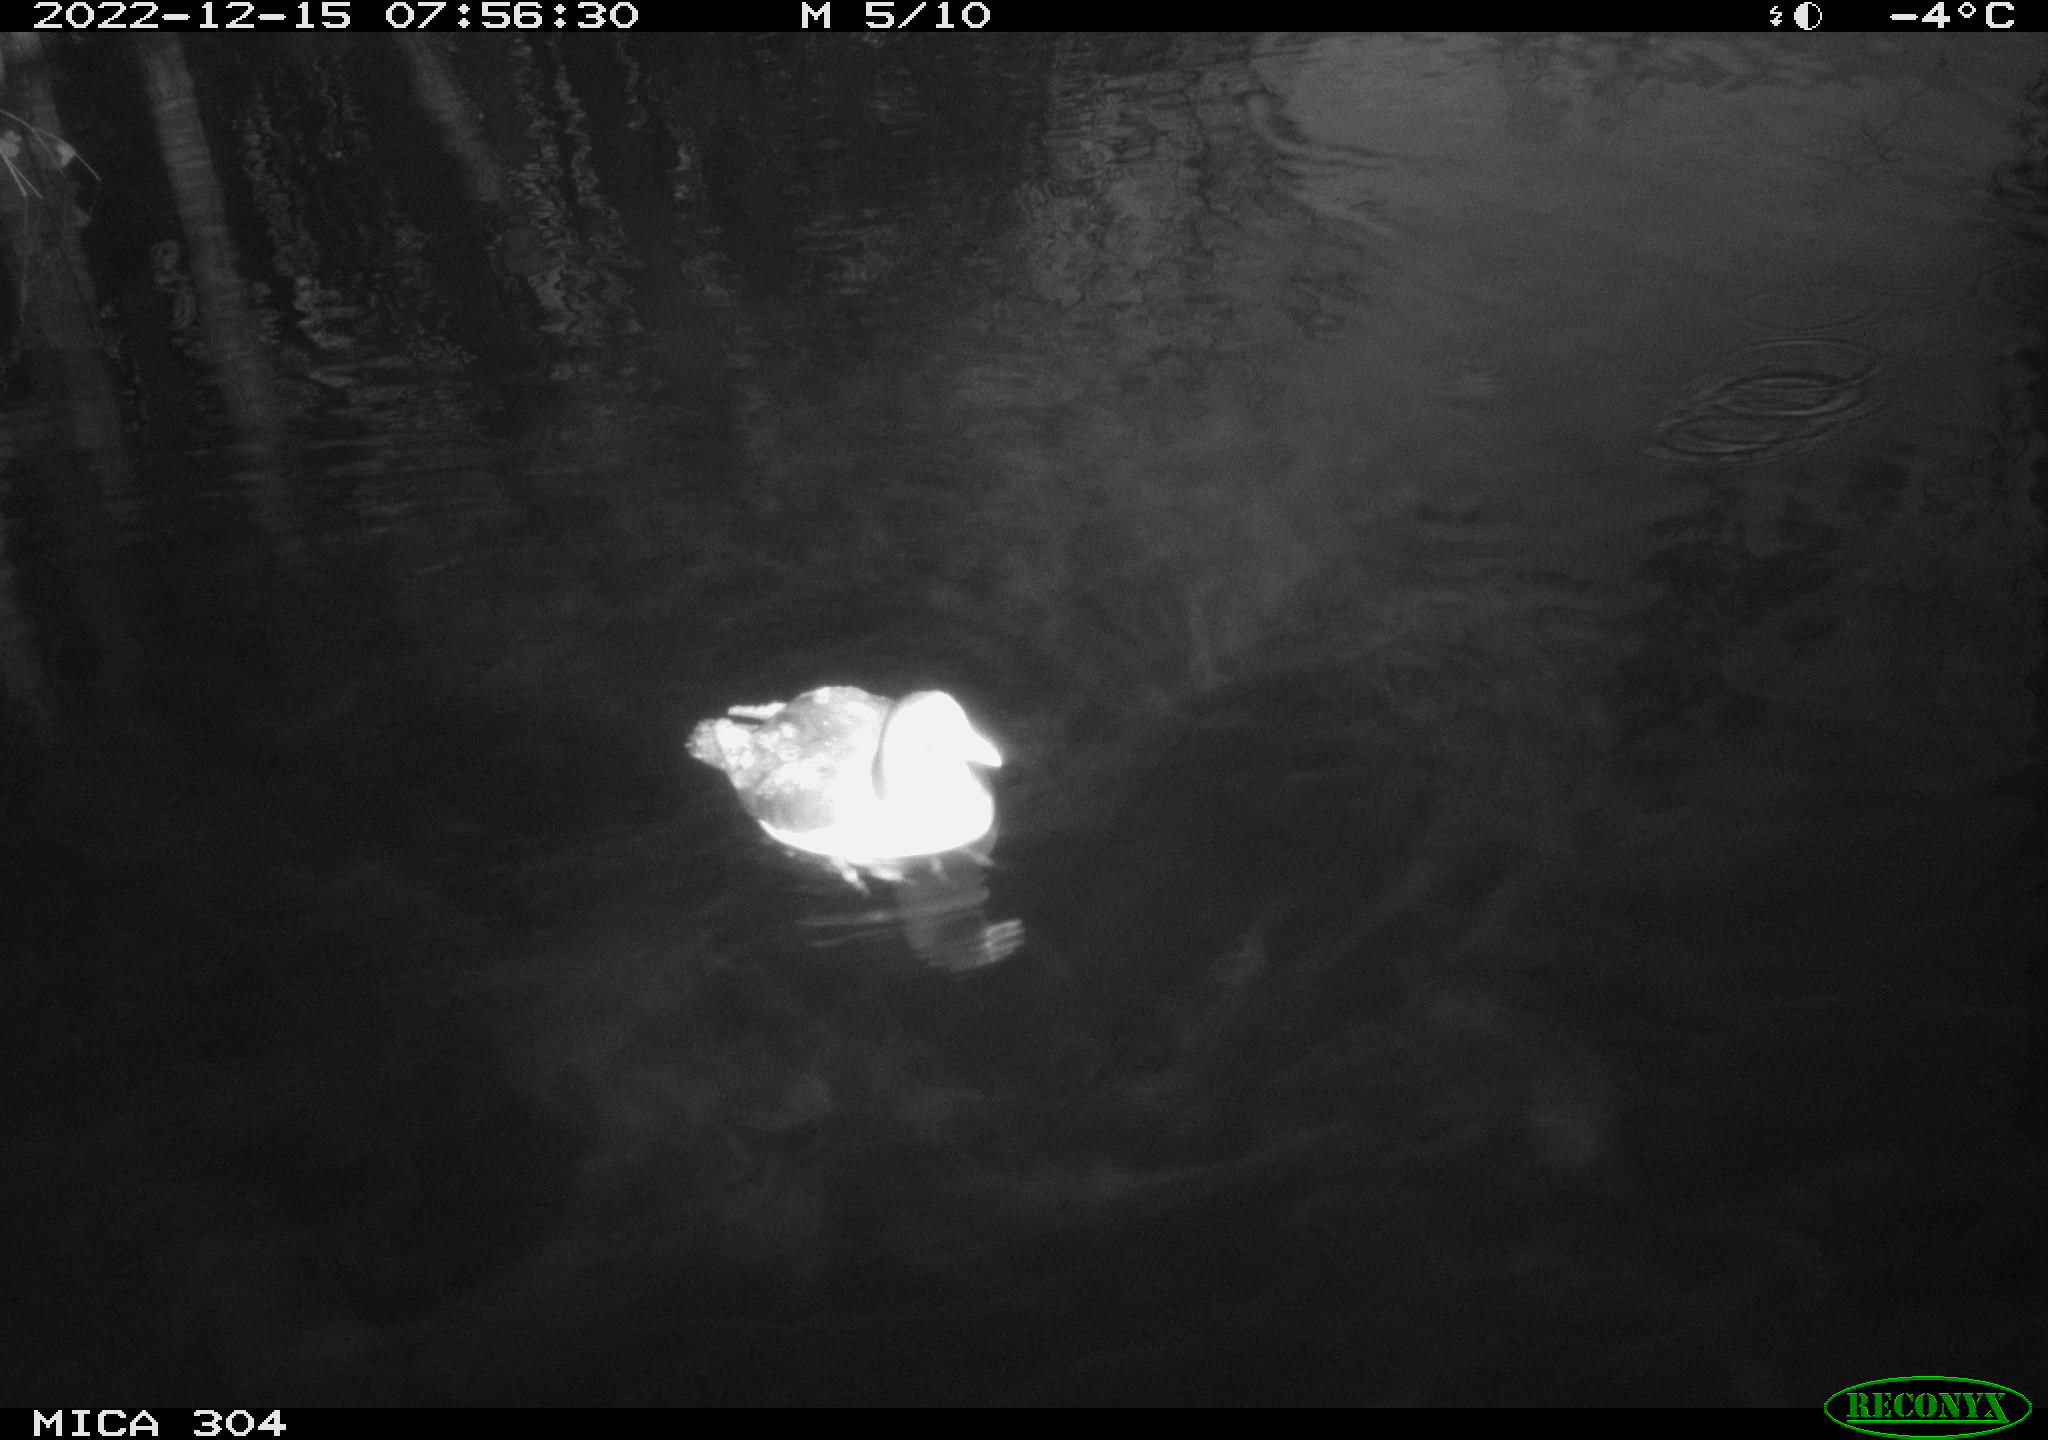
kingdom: Animalia
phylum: Chordata
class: Aves
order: Anseriformes
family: Anatidae
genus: Anas
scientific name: Anas
